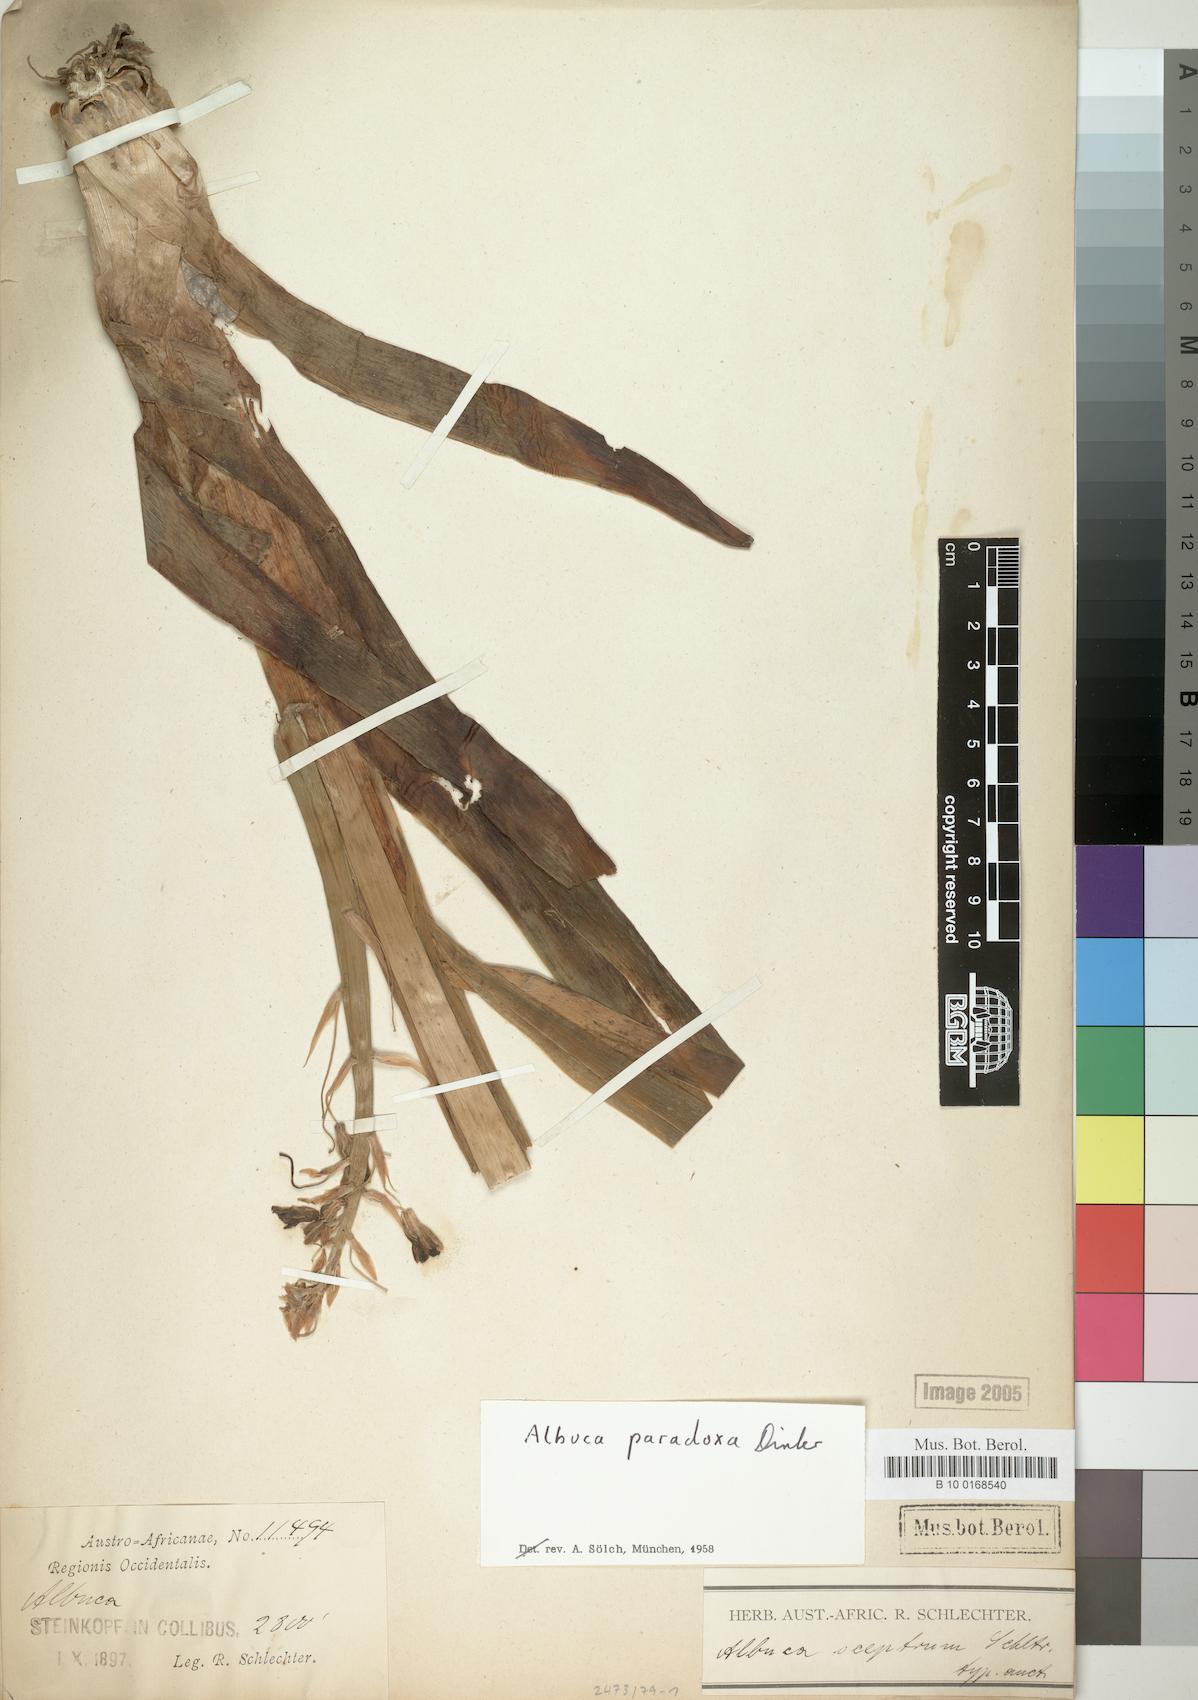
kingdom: Plantae
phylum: Tracheophyta
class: Liliopsida
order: Asparagales
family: Asparagaceae
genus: Albuca
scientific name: Albuca paradoxa
